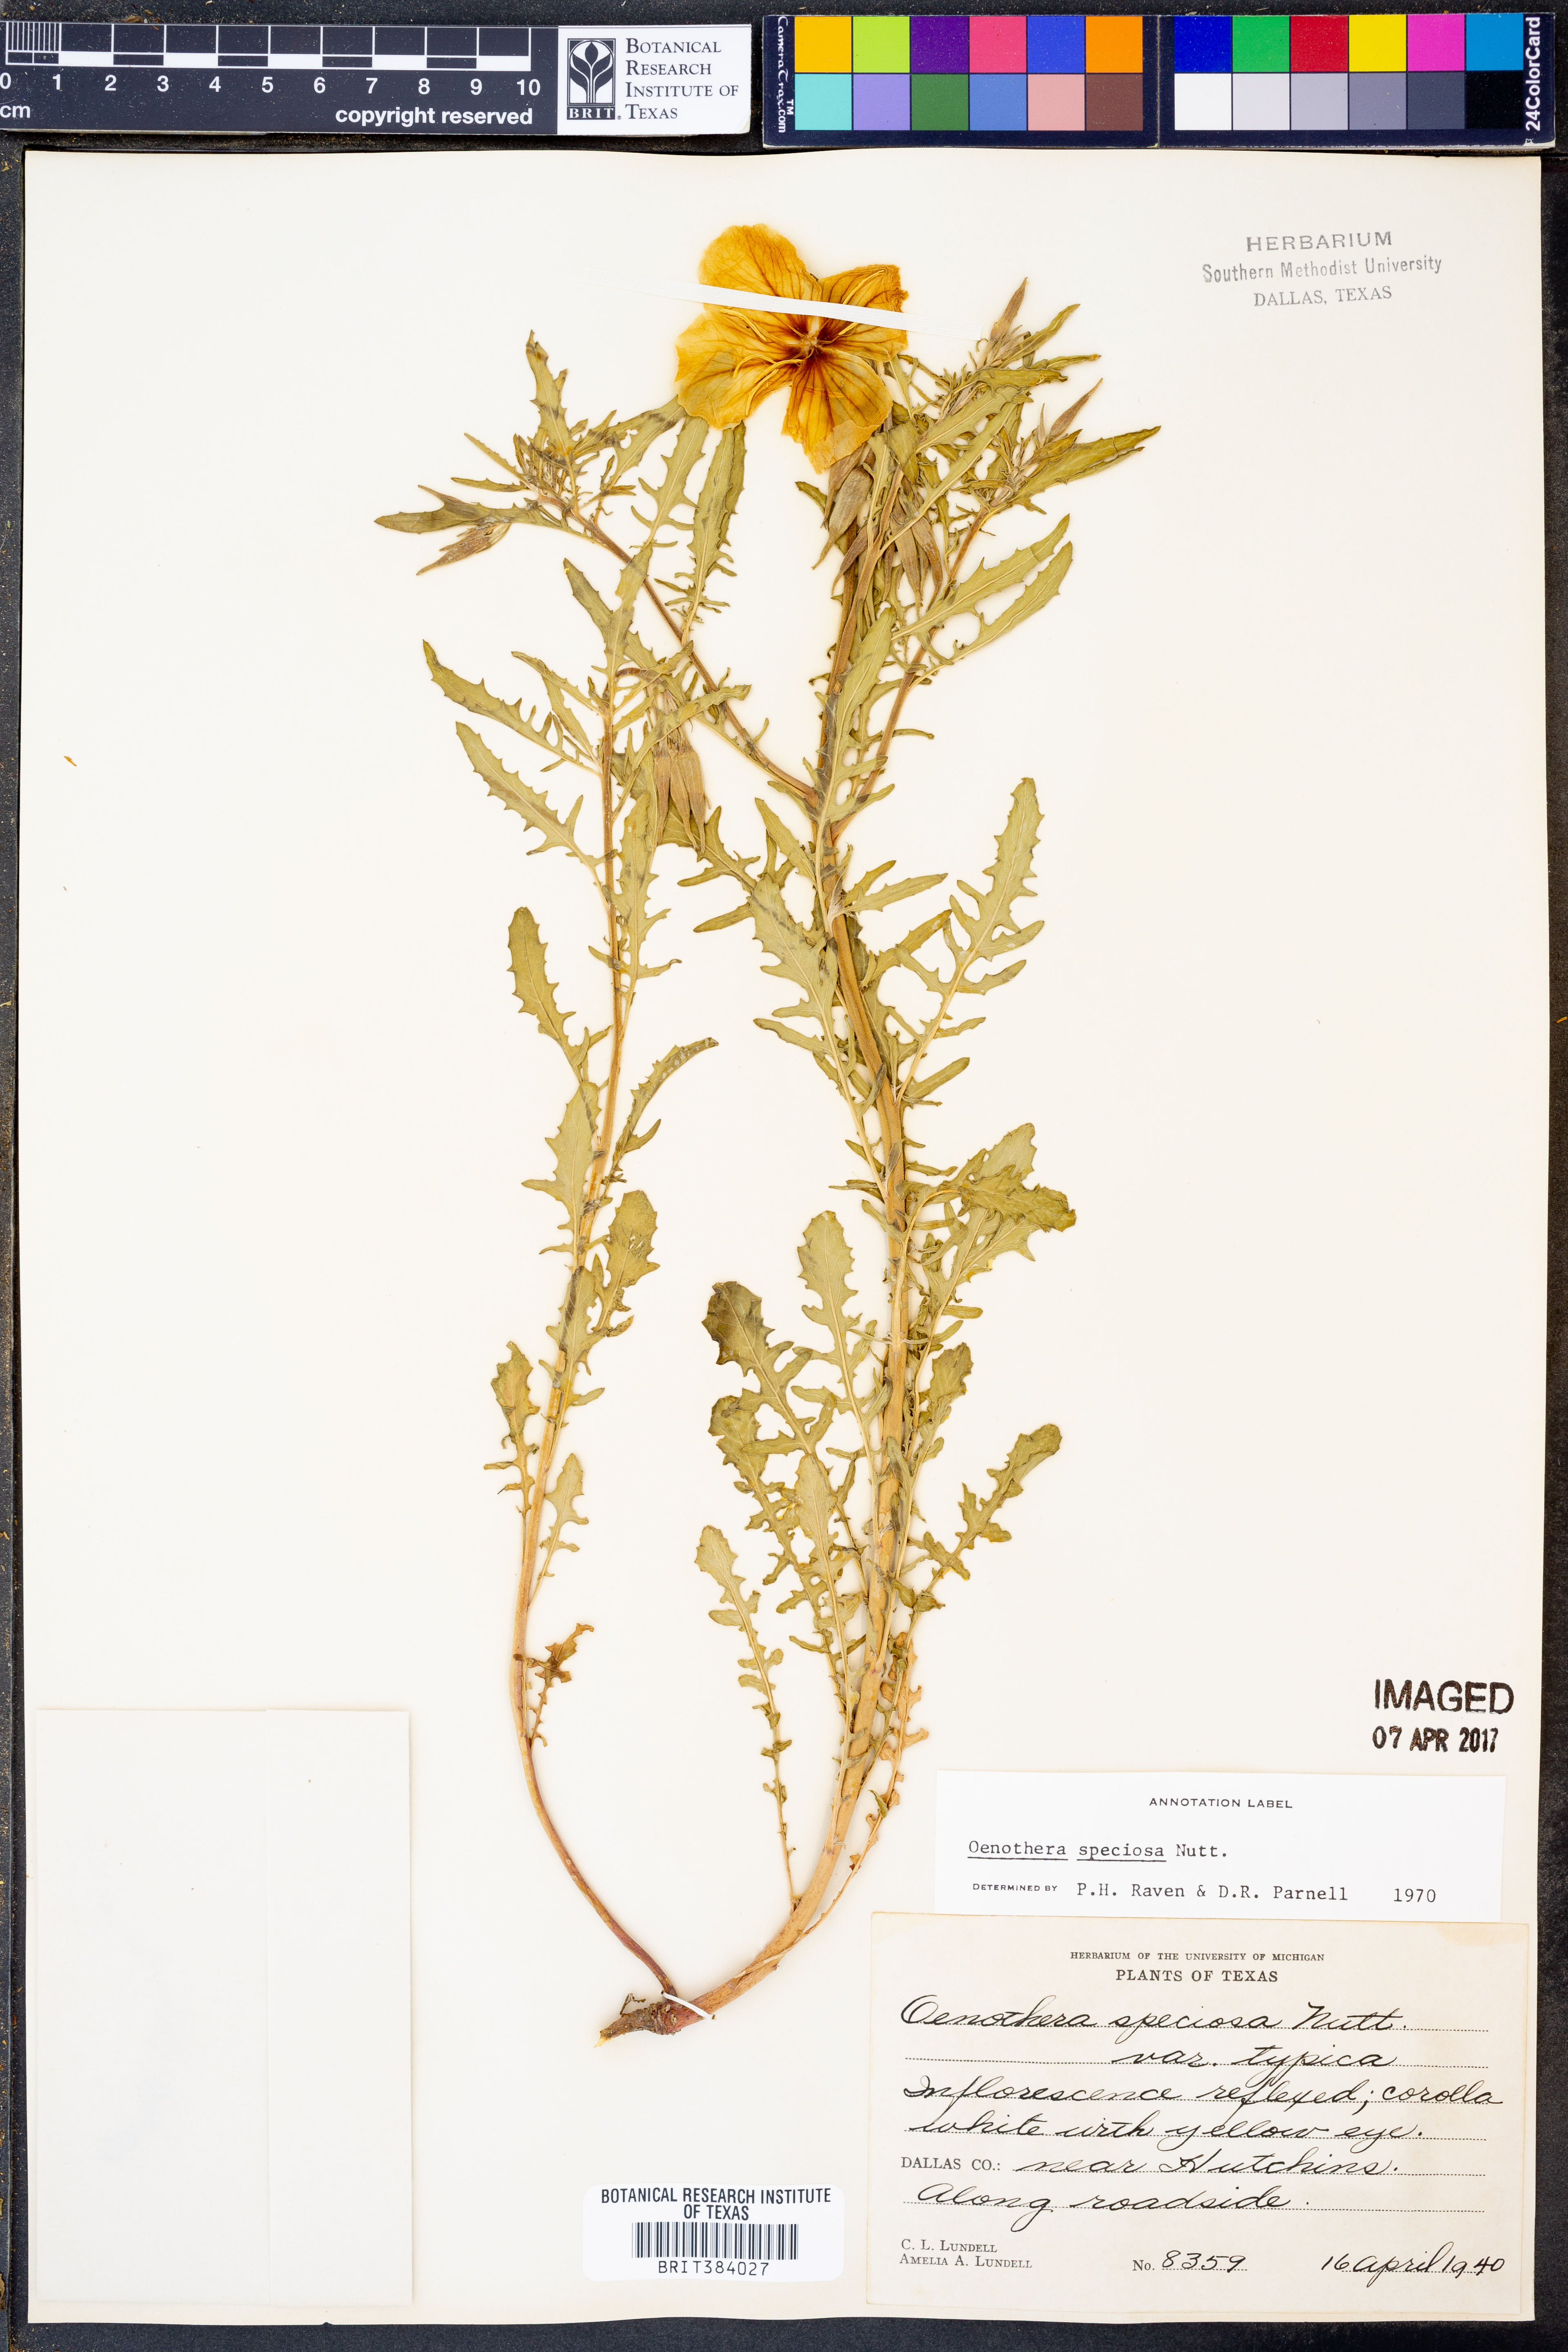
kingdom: Plantae
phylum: Tracheophyta
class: Magnoliopsida
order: Myrtales
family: Onagraceae
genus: Oenothera
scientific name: Oenothera speciosa
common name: White evening-primrose
